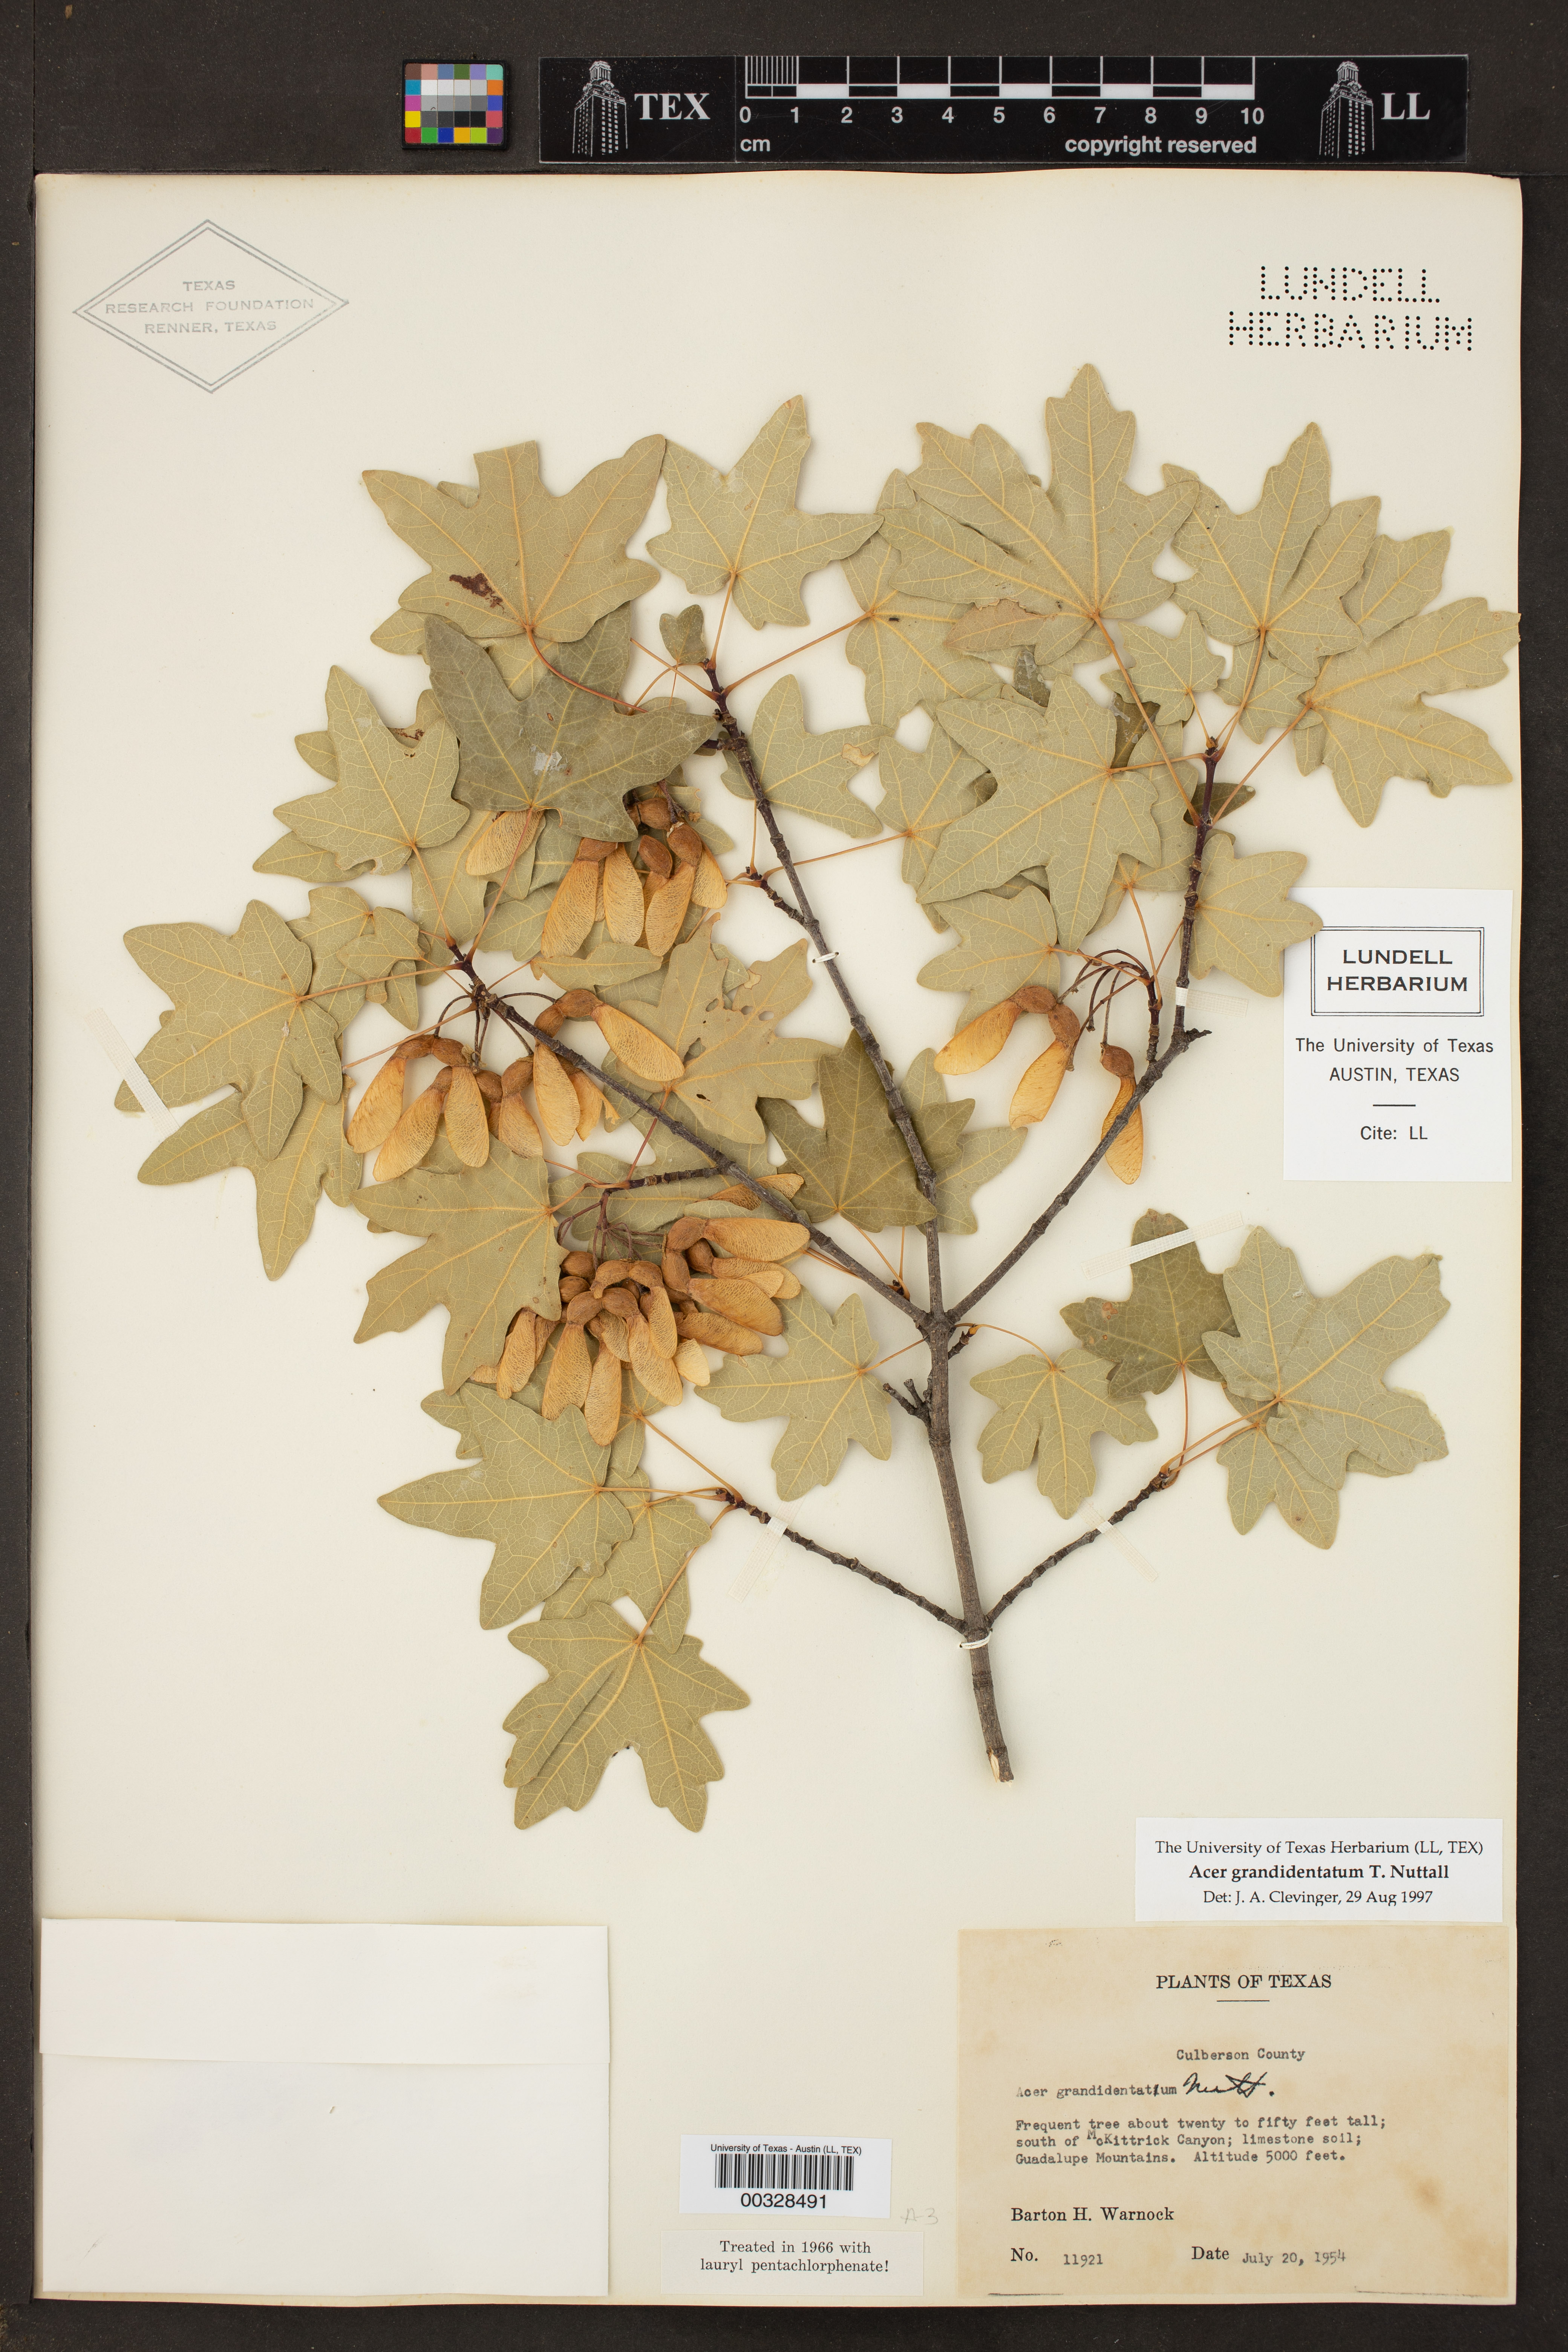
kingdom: Plantae
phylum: Tracheophyta
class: Magnoliopsida
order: Sapindales
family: Sapindaceae
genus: Acer
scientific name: Acer grandidentatum
